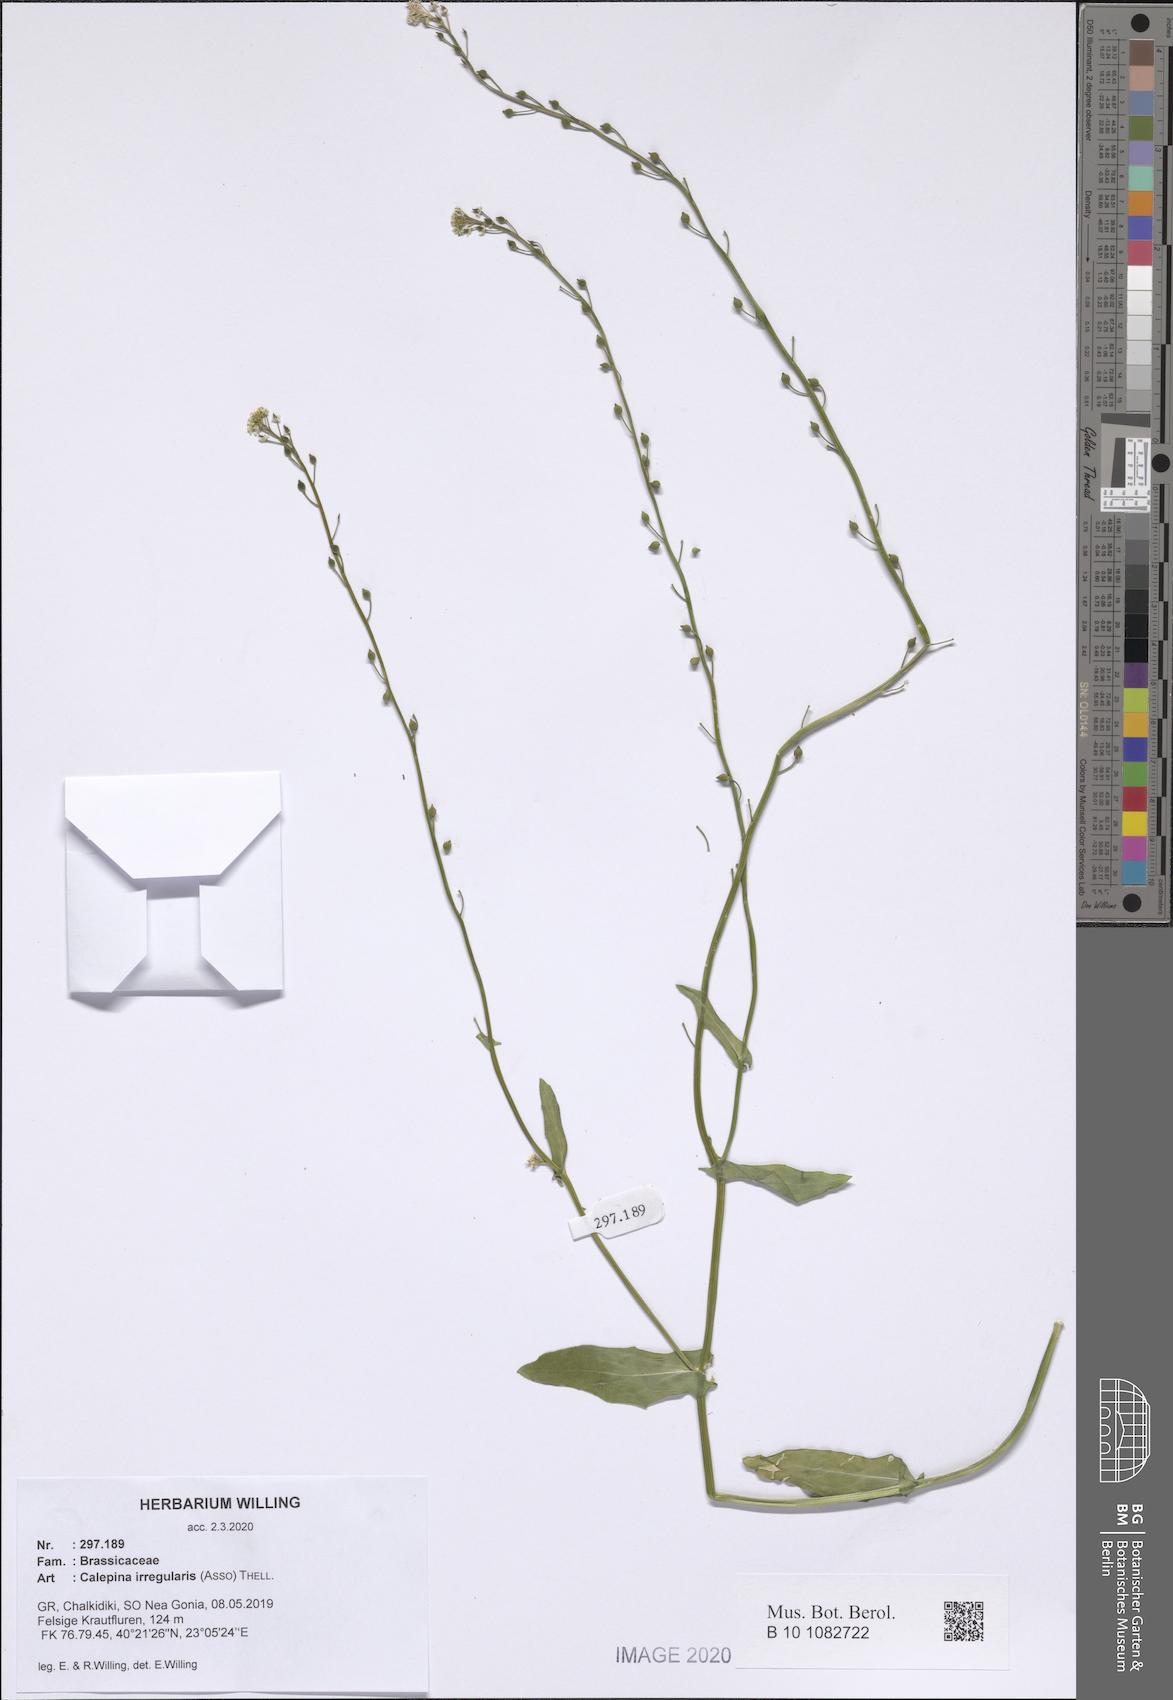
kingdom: Plantae
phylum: Tracheophyta
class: Magnoliopsida
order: Brassicales
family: Brassicaceae
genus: Calepina
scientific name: Calepina irregularis
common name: White ballmustard
